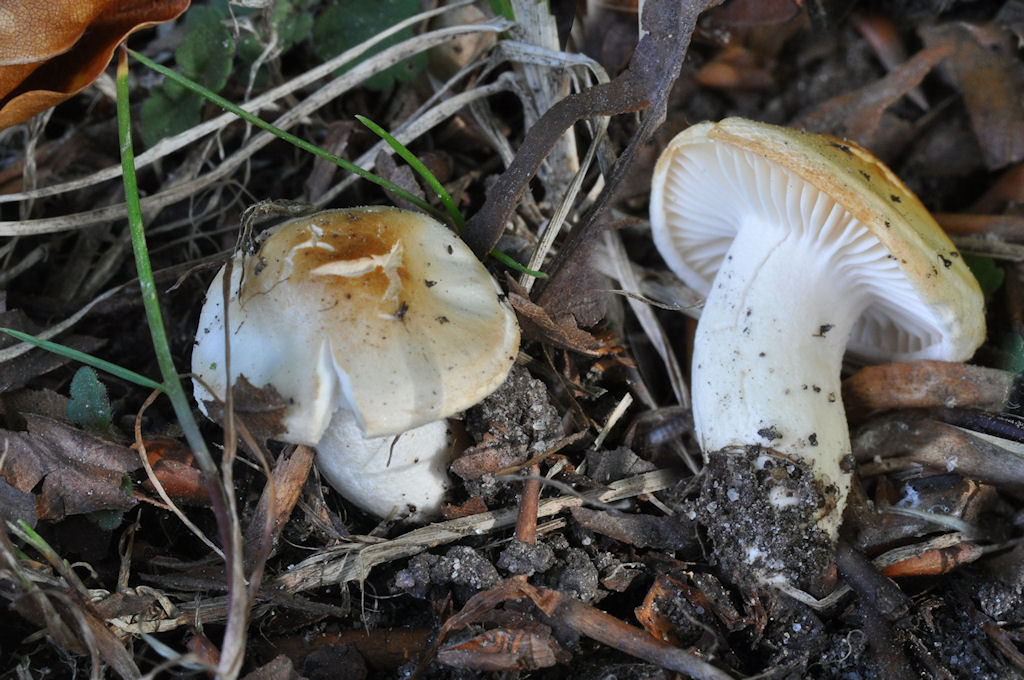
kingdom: Fungi
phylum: Basidiomycota
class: Agaricomycetes
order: Agaricales
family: Hygrophoraceae
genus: Hygrophorus
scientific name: Hygrophorus discoxanthus
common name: ildelugtende sneglehat
